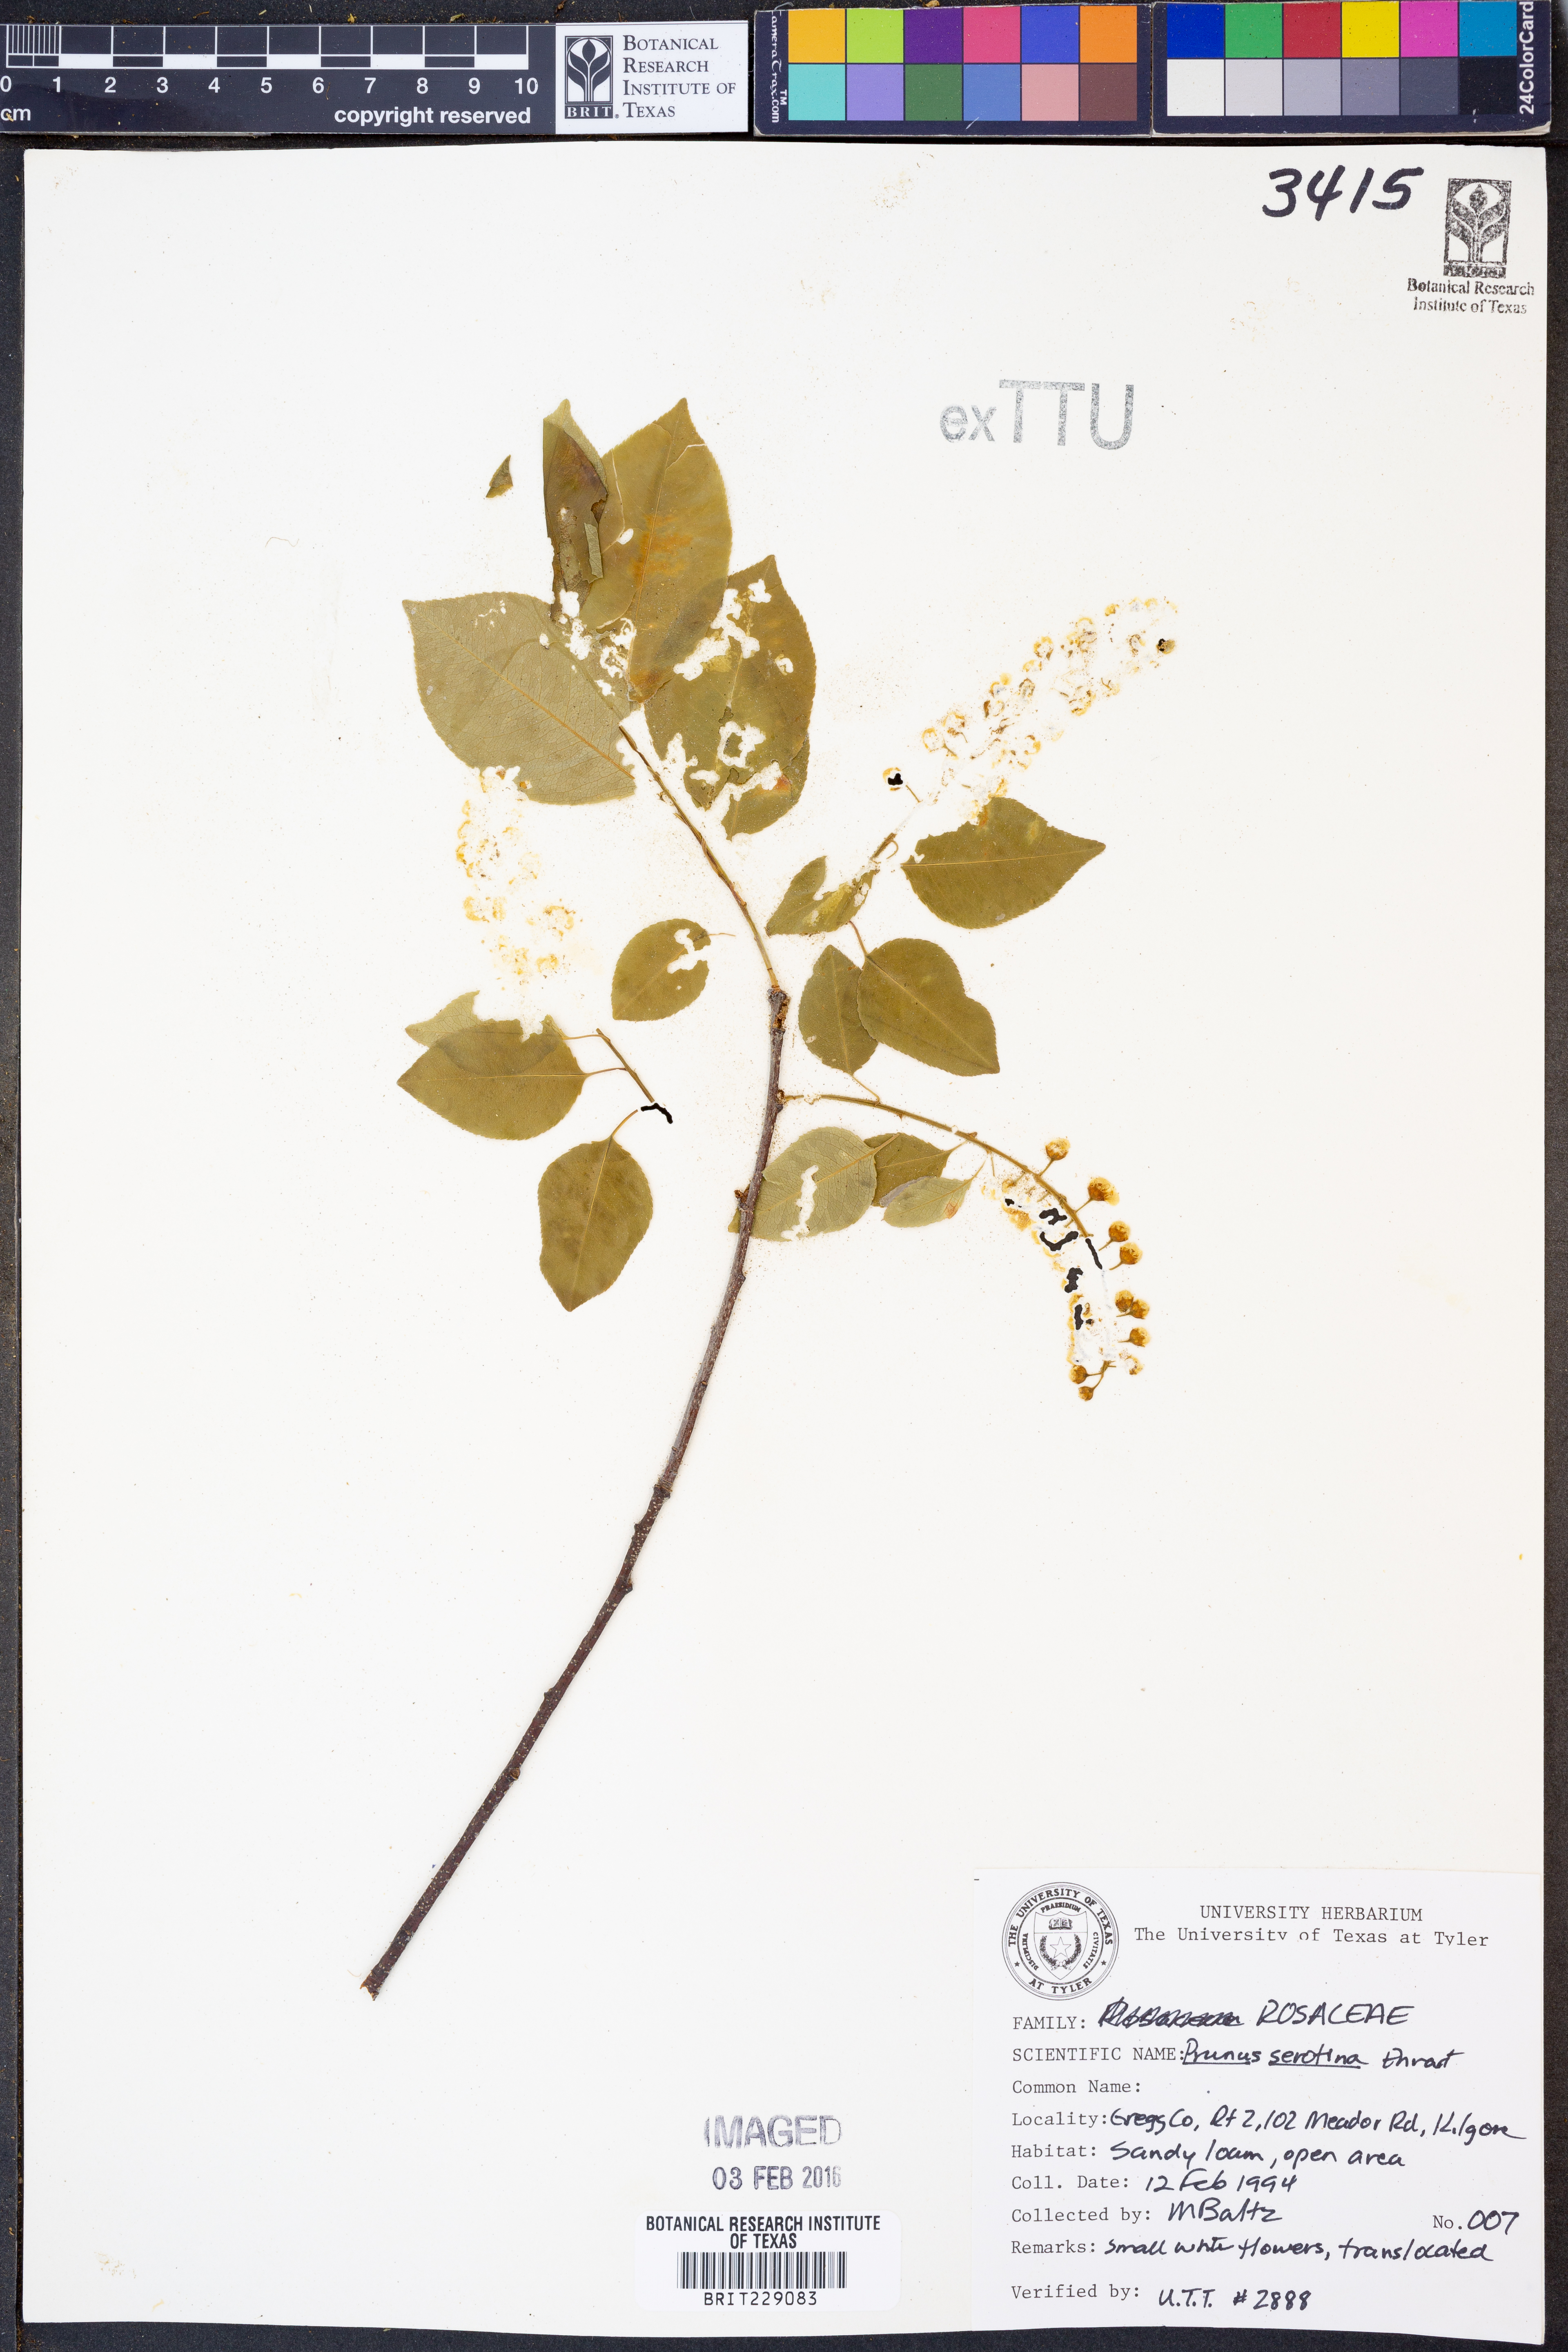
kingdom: Plantae
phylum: Tracheophyta
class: Magnoliopsida
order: Rosales
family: Rosaceae
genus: Prunus
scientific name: Prunus serotina
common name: Black cherry
